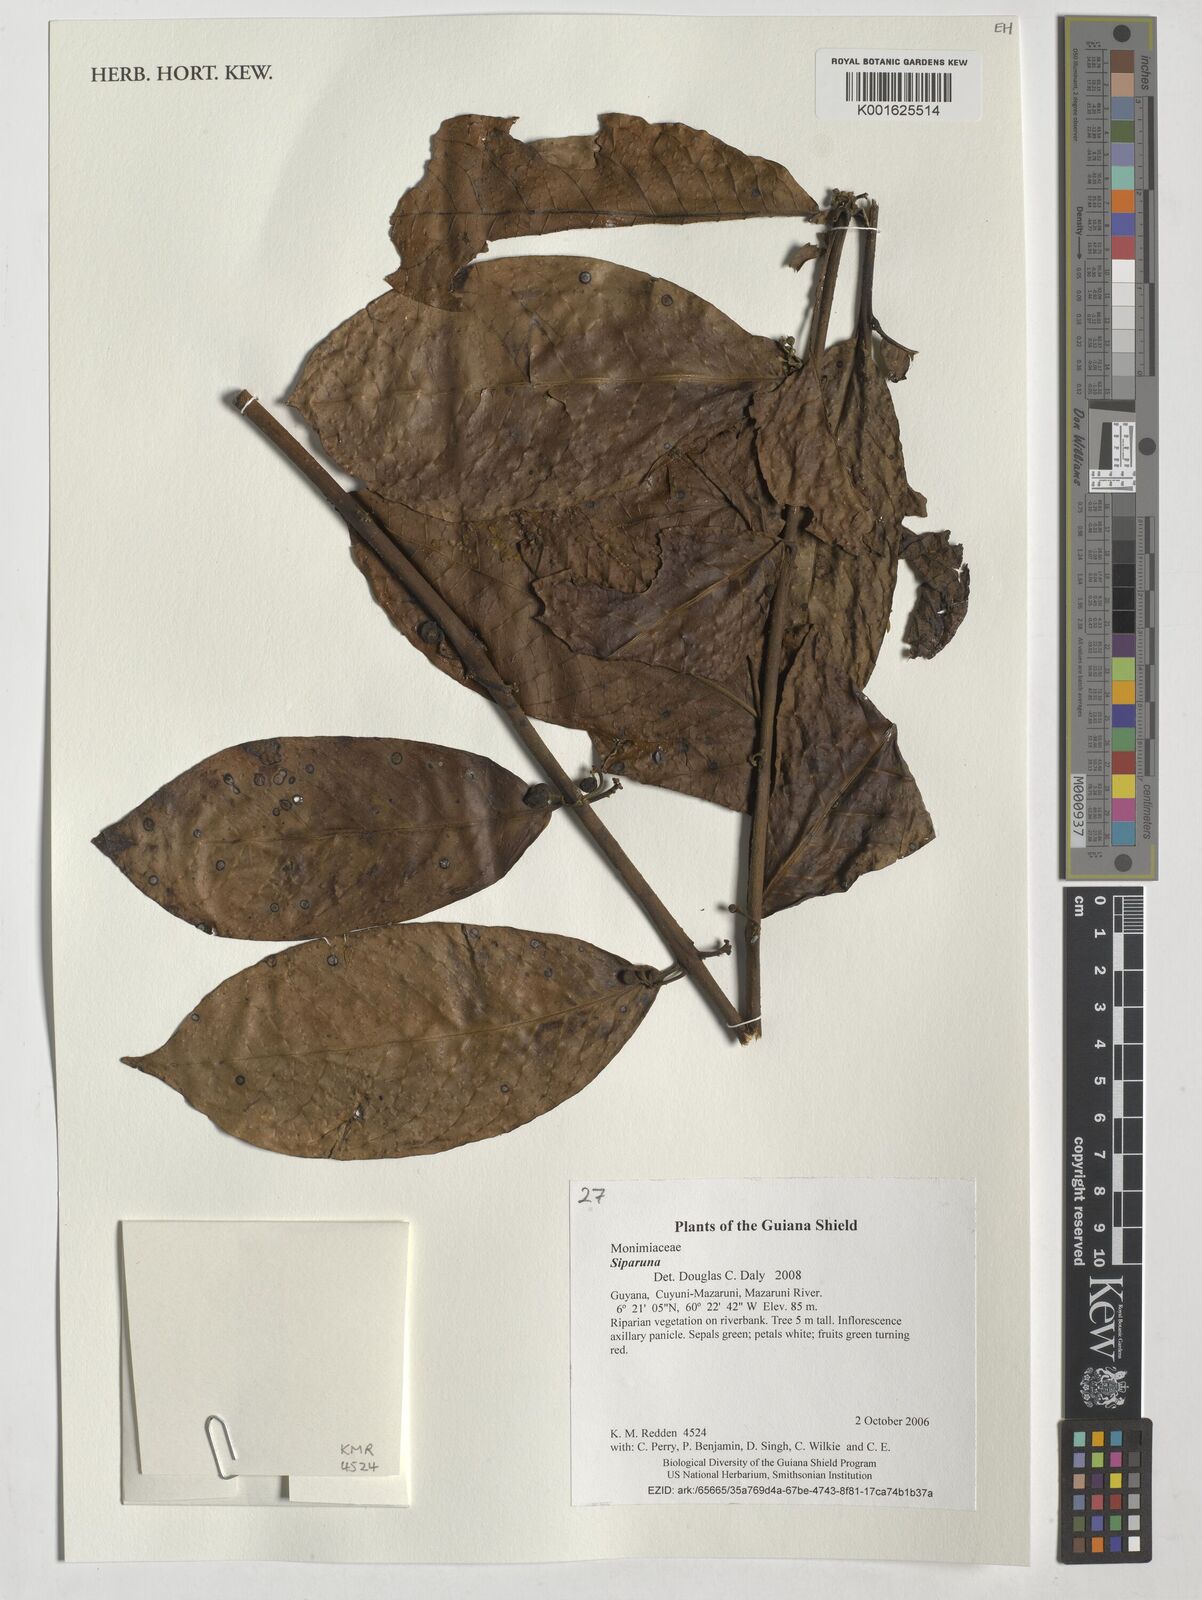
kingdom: Plantae
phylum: Tracheophyta
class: Magnoliopsida
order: Laurales
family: Siparunaceae
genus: Siparuna
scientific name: Siparuna
